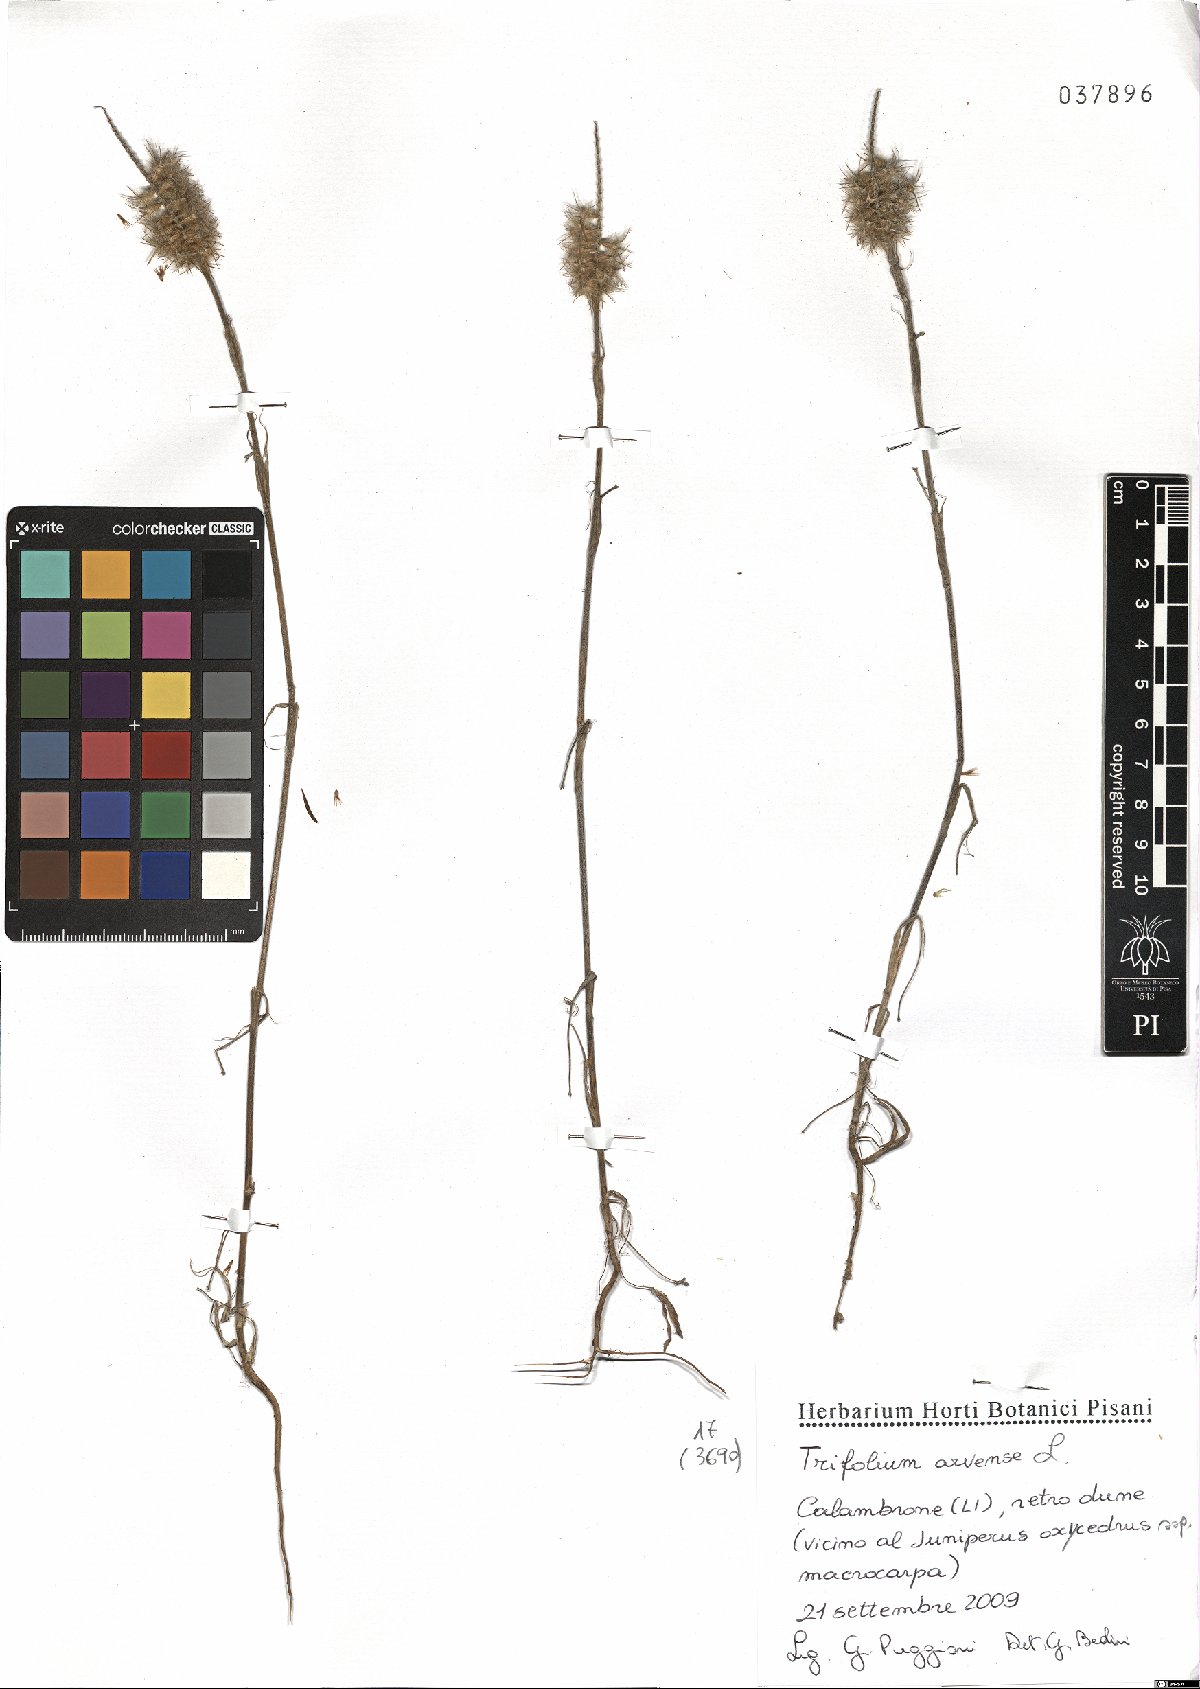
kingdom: Plantae
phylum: Tracheophyta
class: Magnoliopsida
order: Fabales
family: Fabaceae
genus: Trifolium
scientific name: Trifolium arvense
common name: Hare's-foot clover
